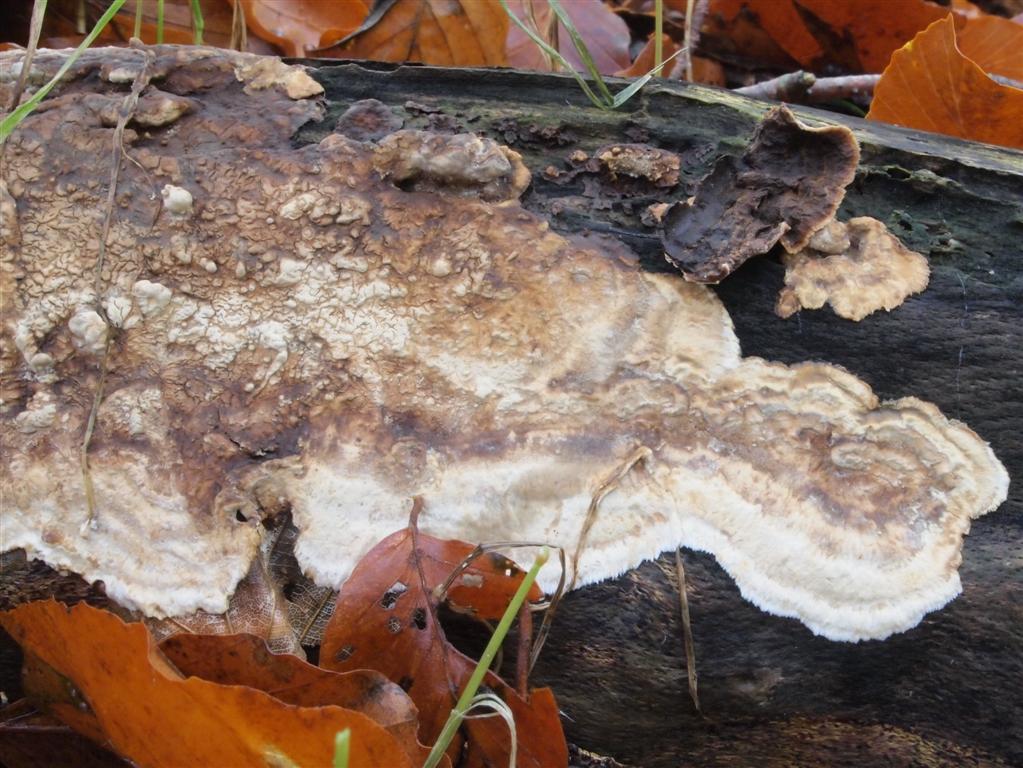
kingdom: Fungi
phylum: Basidiomycota
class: Agaricomycetes
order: Russulales
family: Hericiaceae
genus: Laxitextum
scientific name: Laxitextum bicolor
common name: tvefarvet filtskind
